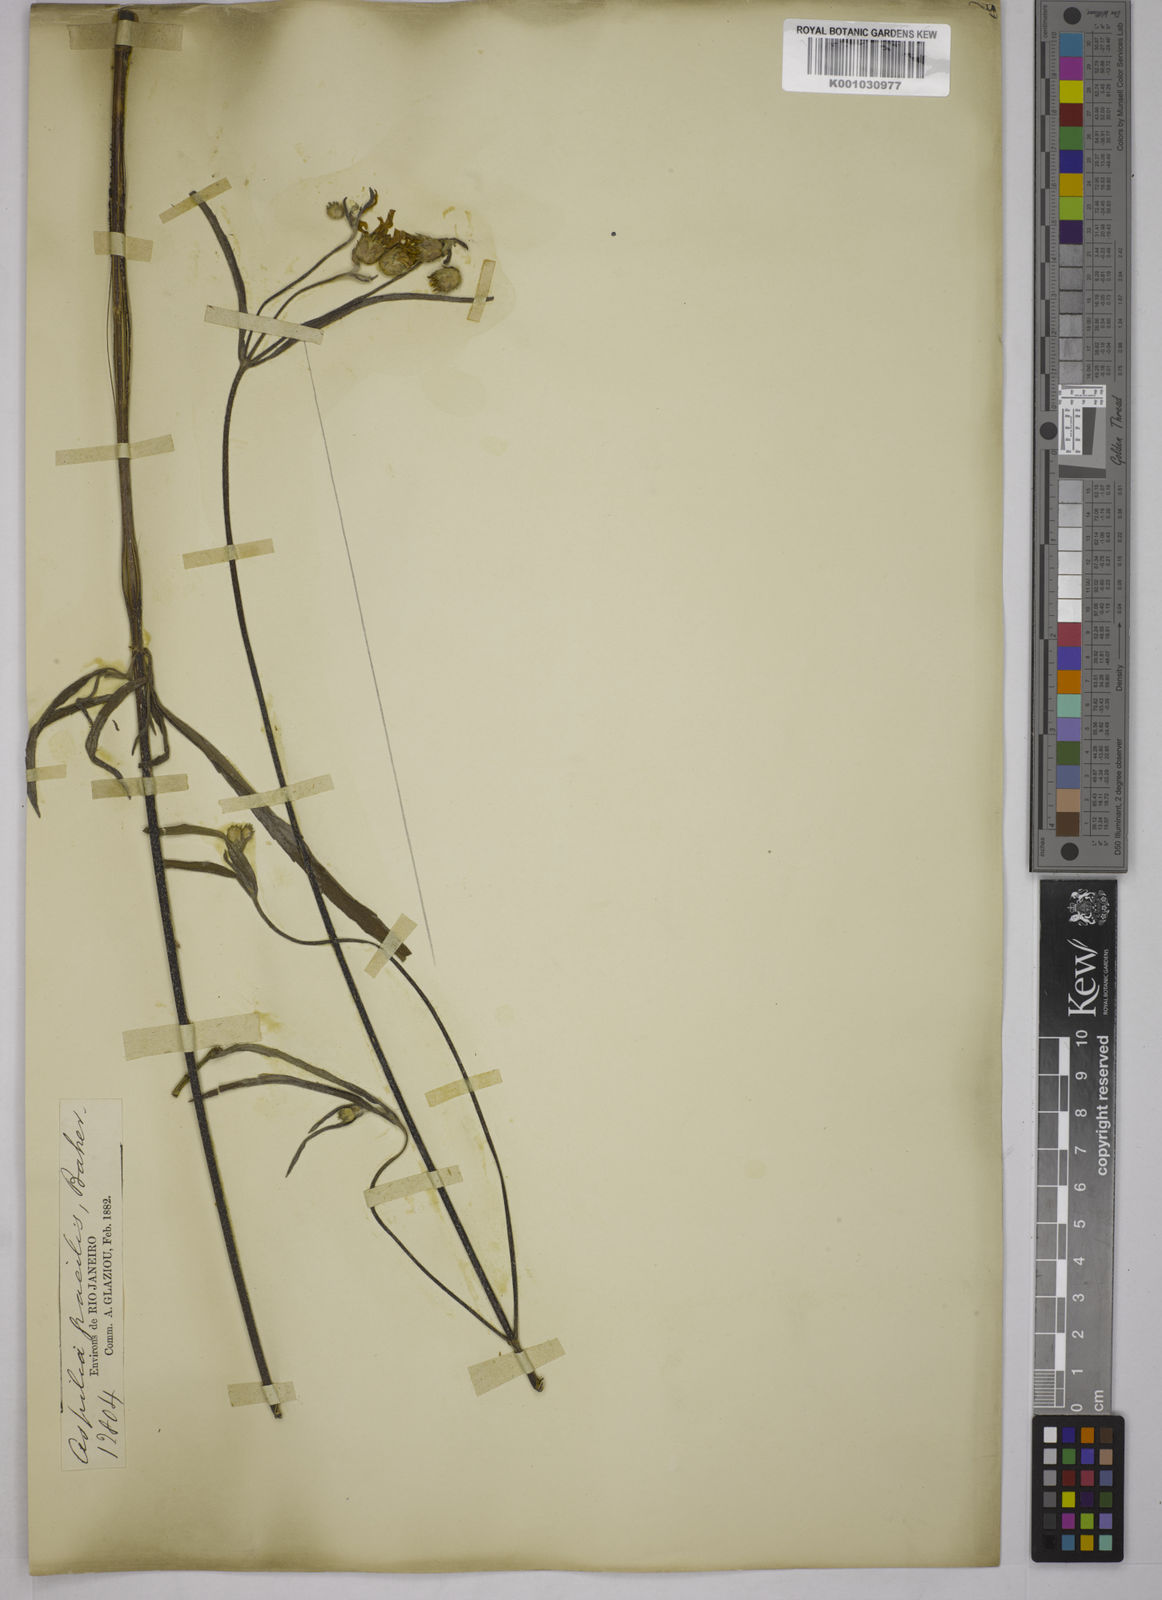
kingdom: Plantae
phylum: Tracheophyta
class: Magnoliopsida
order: Asterales
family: Asteraceae
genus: Wedelia
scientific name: Wedelia floribunda
